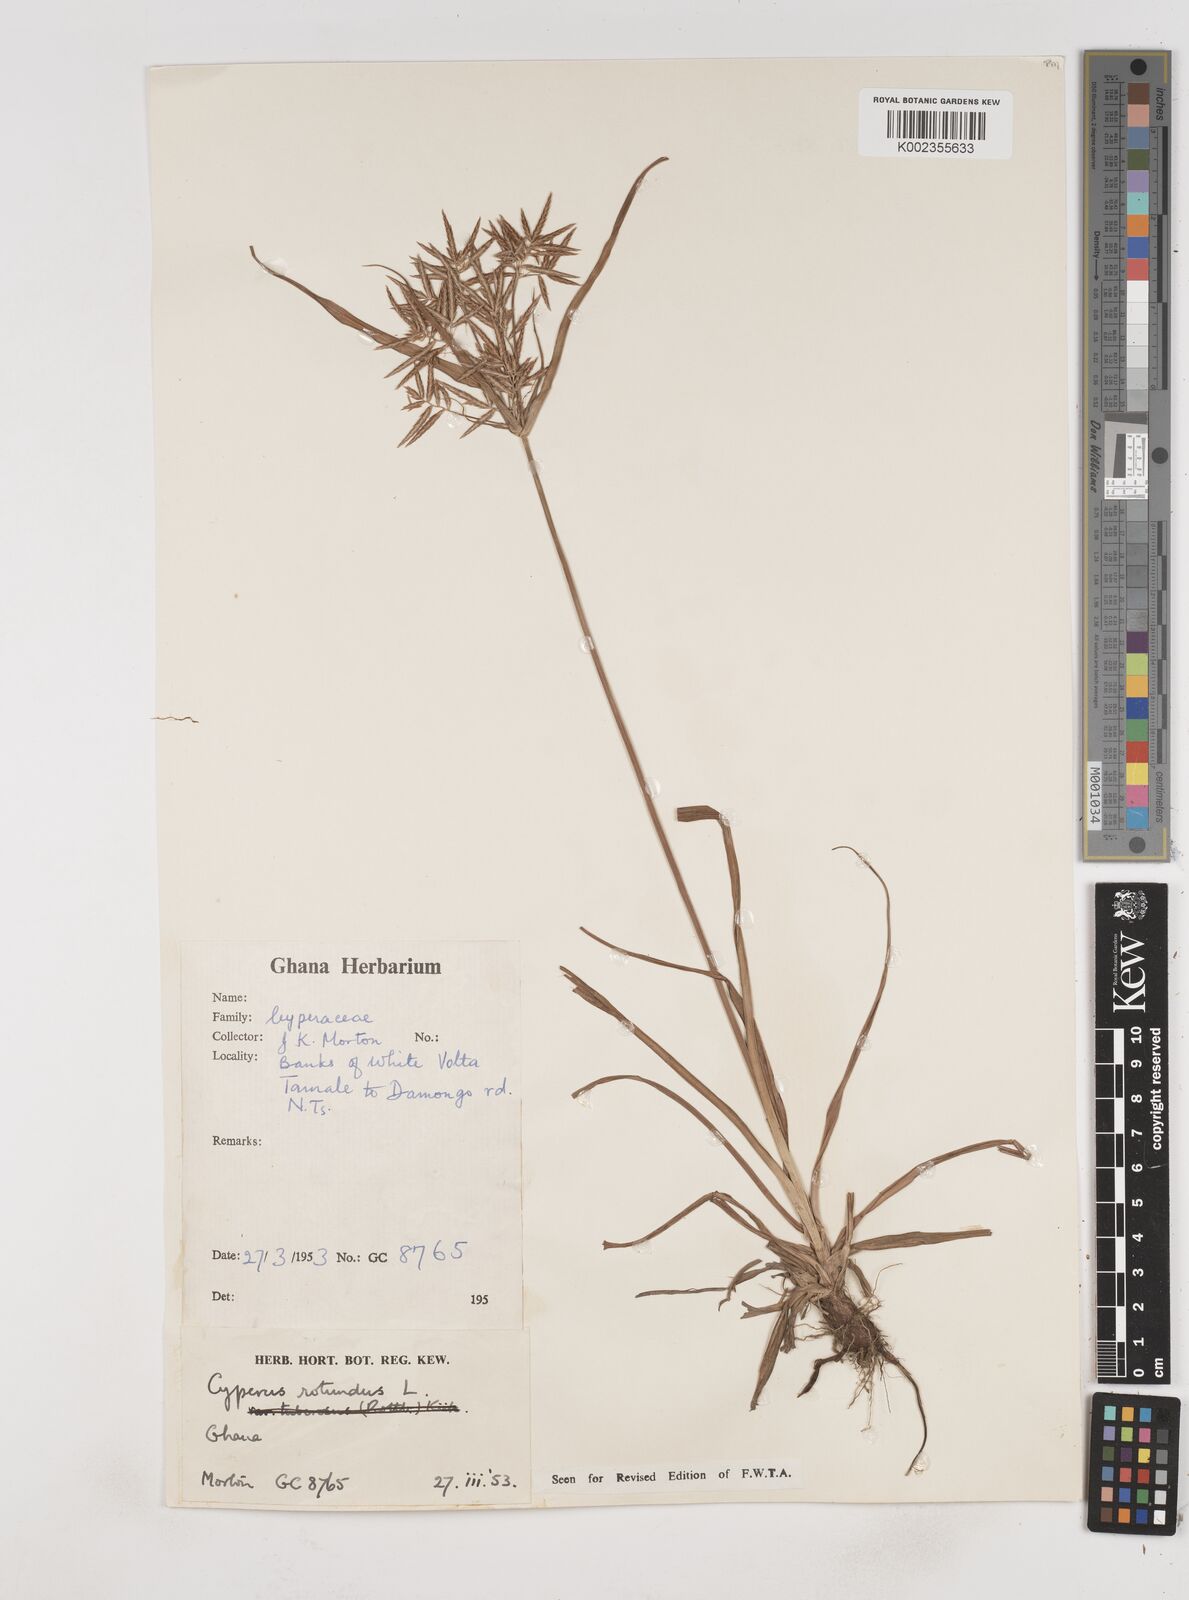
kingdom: Plantae
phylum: Tracheophyta
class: Liliopsida
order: Poales
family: Cyperaceae
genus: Cyperus
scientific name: Cyperus rotundus
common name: Nutgrass
